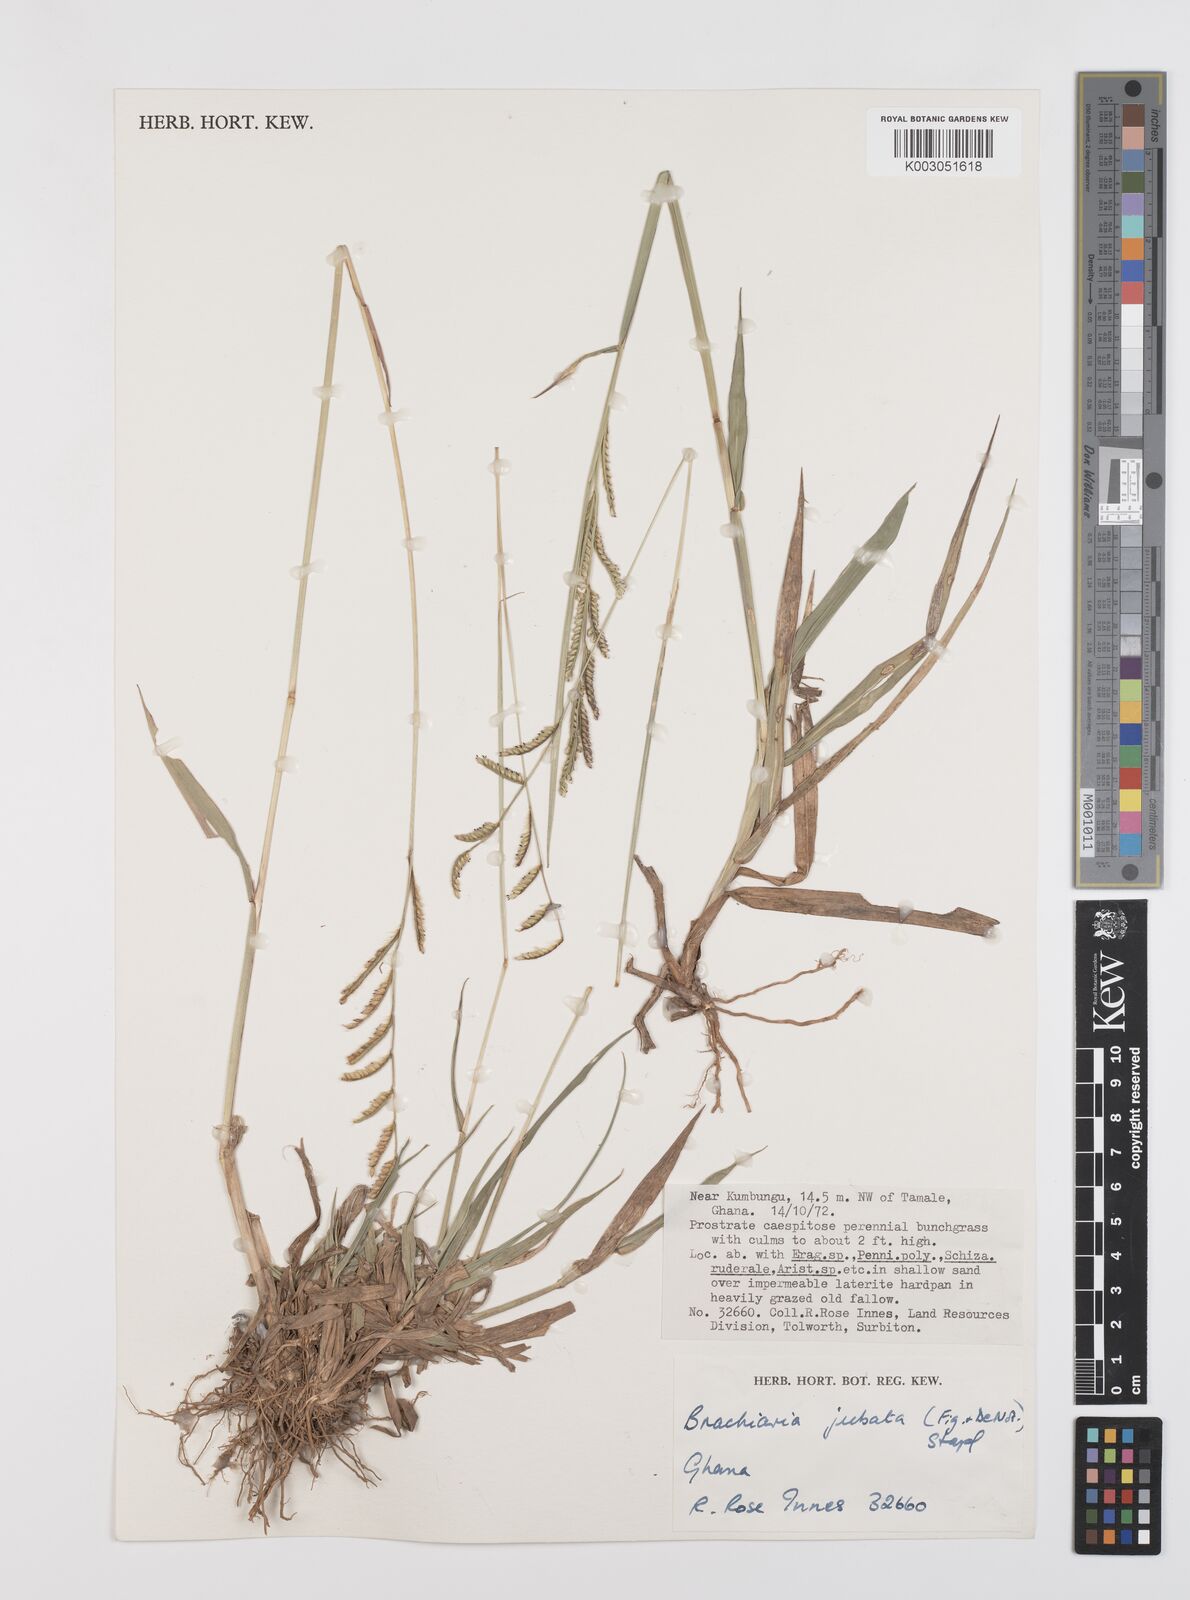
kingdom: Plantae
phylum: Tracheophyta
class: Liliopsida
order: Poales
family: Poaceae
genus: Urochloa
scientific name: Urochloa jubata
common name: Buffalograss
